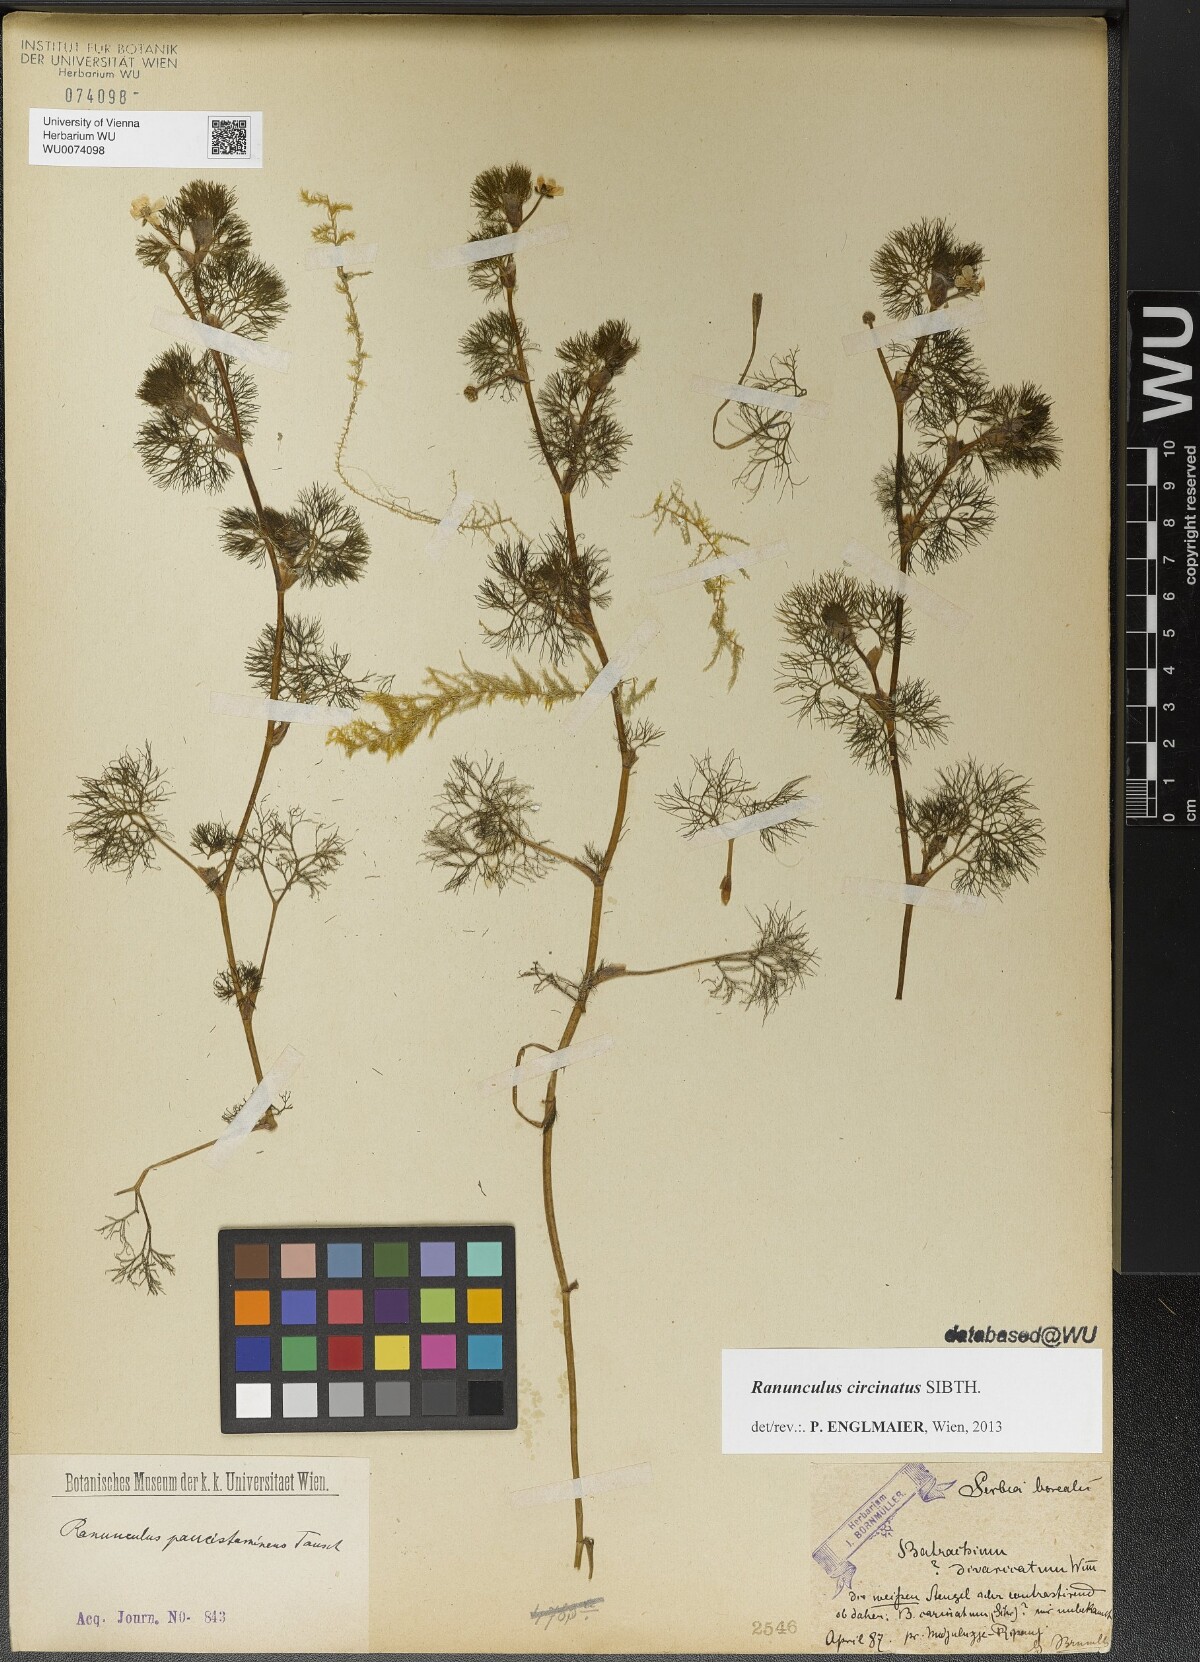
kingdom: Plantae
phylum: Tracheophyta
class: Magnoliopsida
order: Ranunculales
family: Ranunculaceae
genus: Ranunculus
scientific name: Ranunculus circinatus
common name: Fan-leaved water-crowfoot
